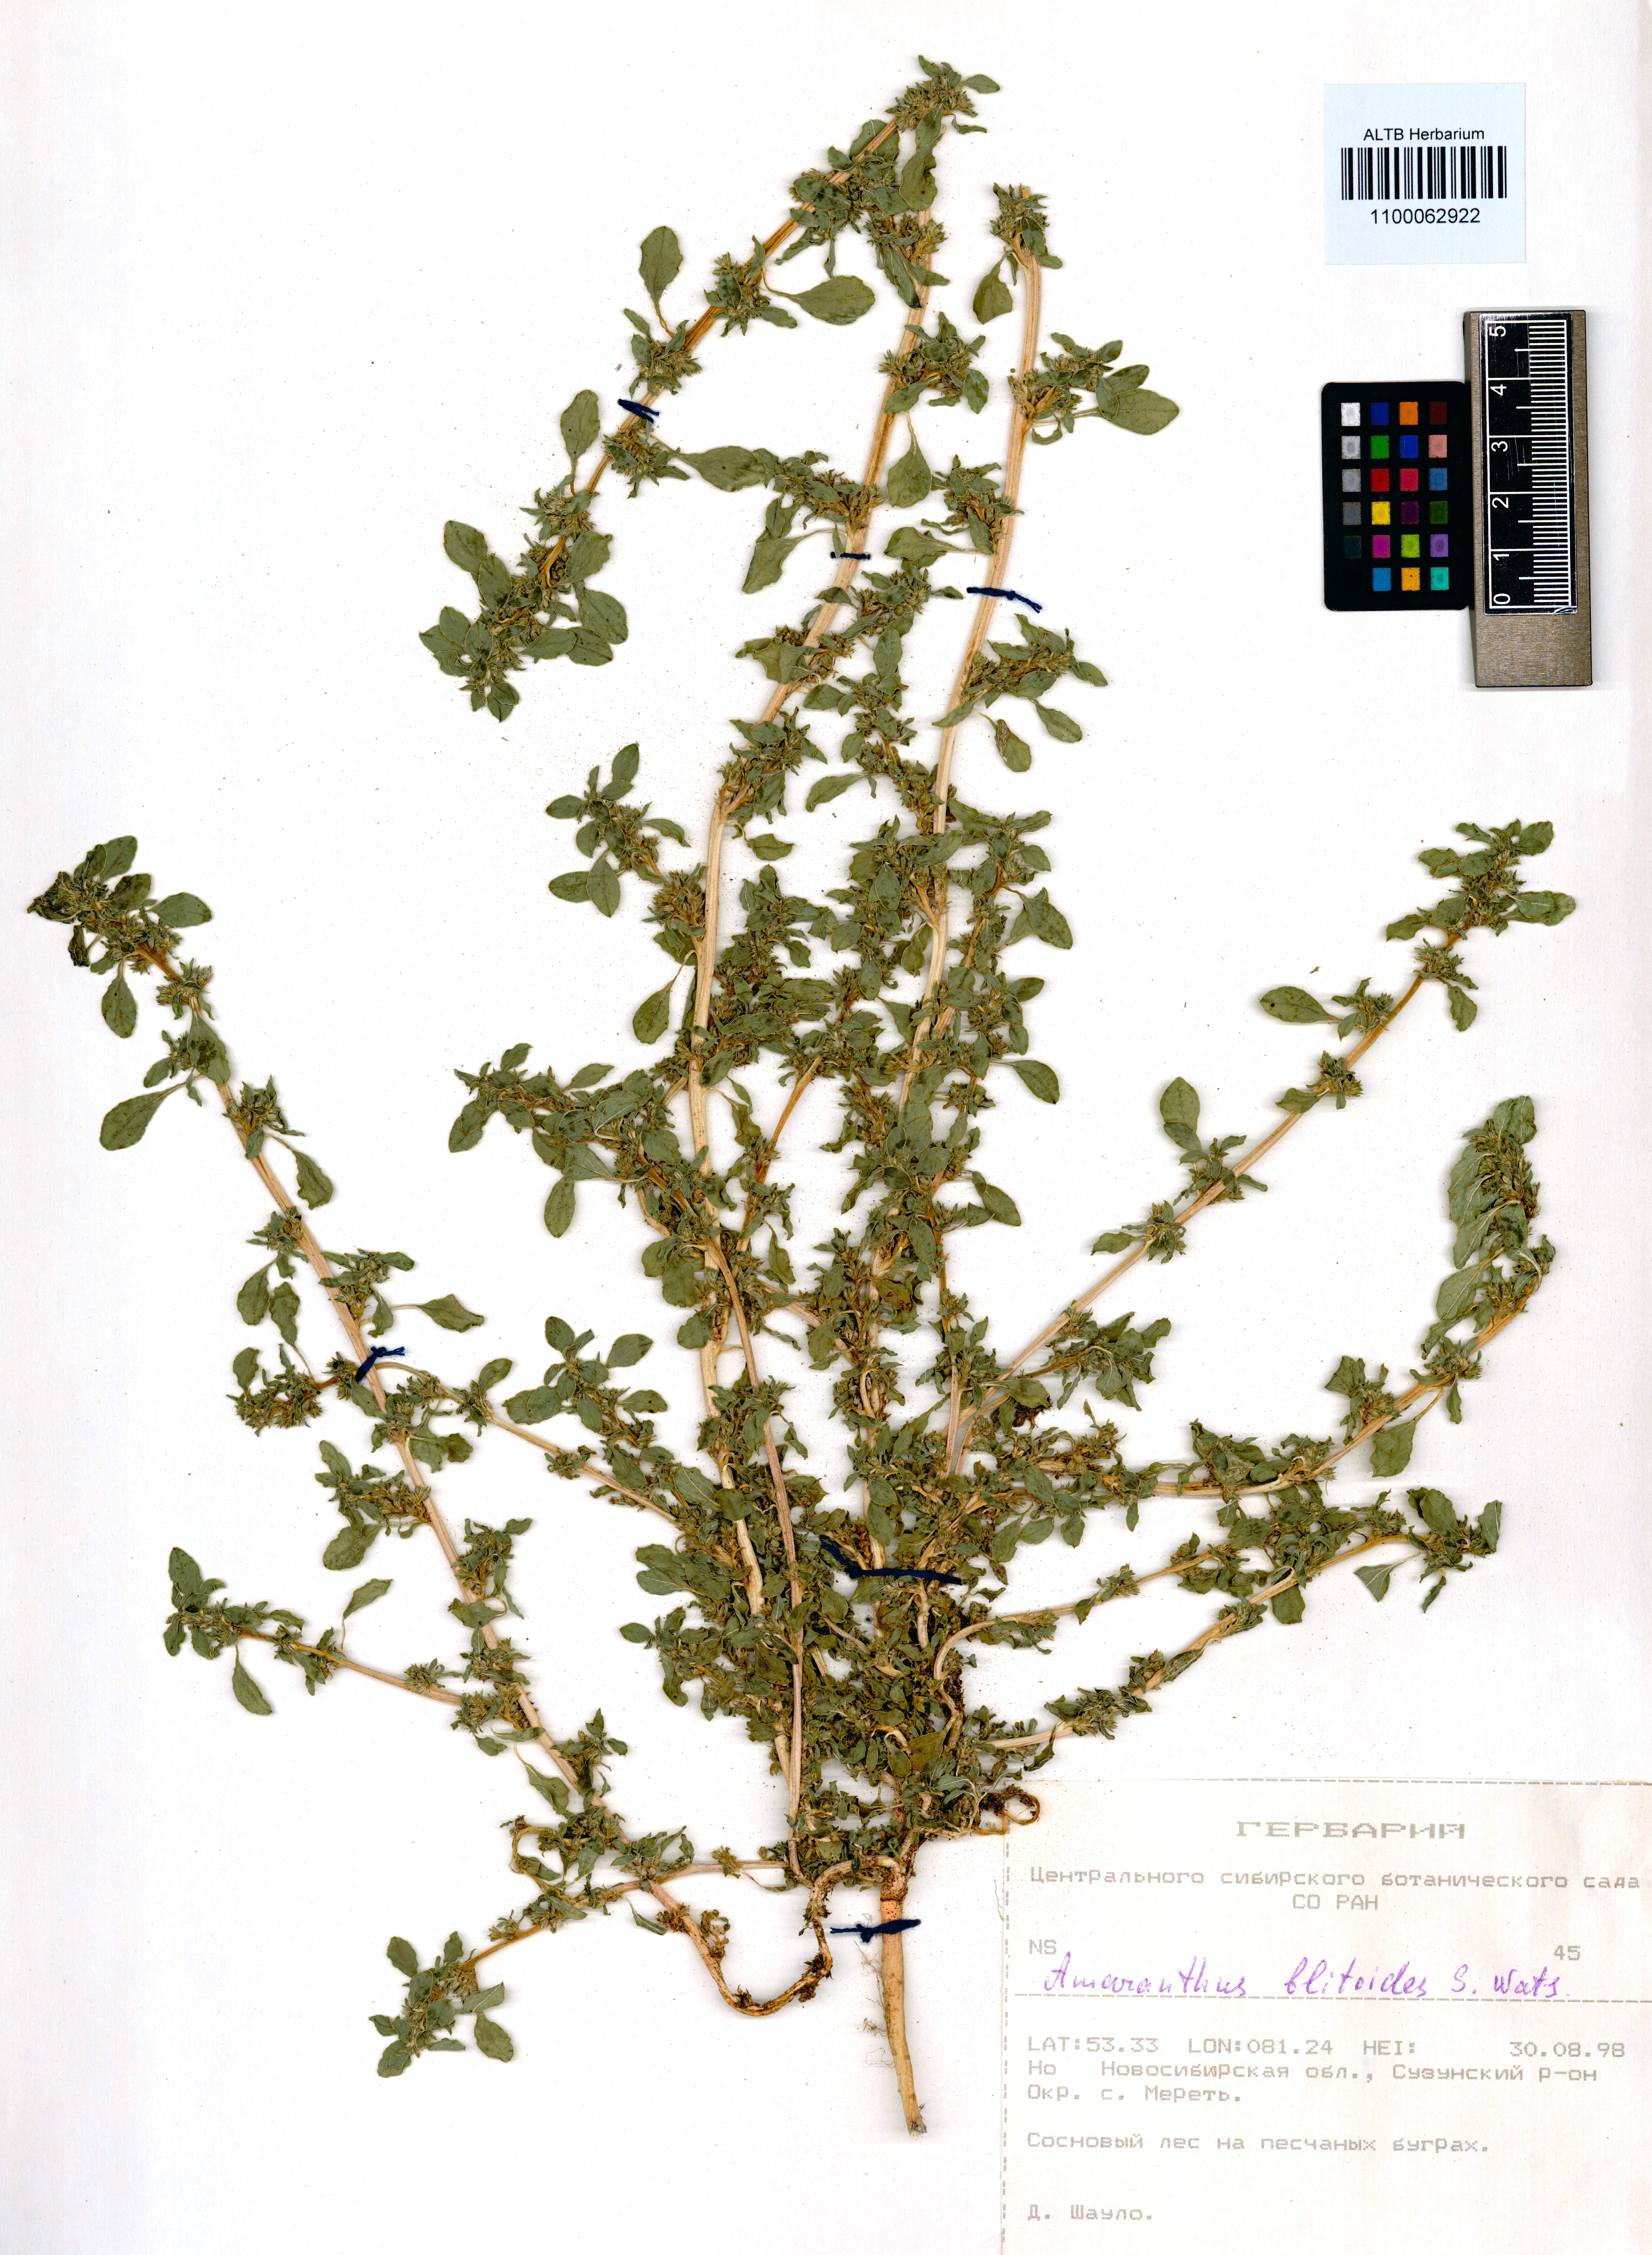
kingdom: Plantae
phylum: Tracheophyta
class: Magnoliopsida
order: Caryophyllales
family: Amaranthaceae
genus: Amaranthus
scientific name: Amaranthus blitoides
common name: Prostrate pigweed
